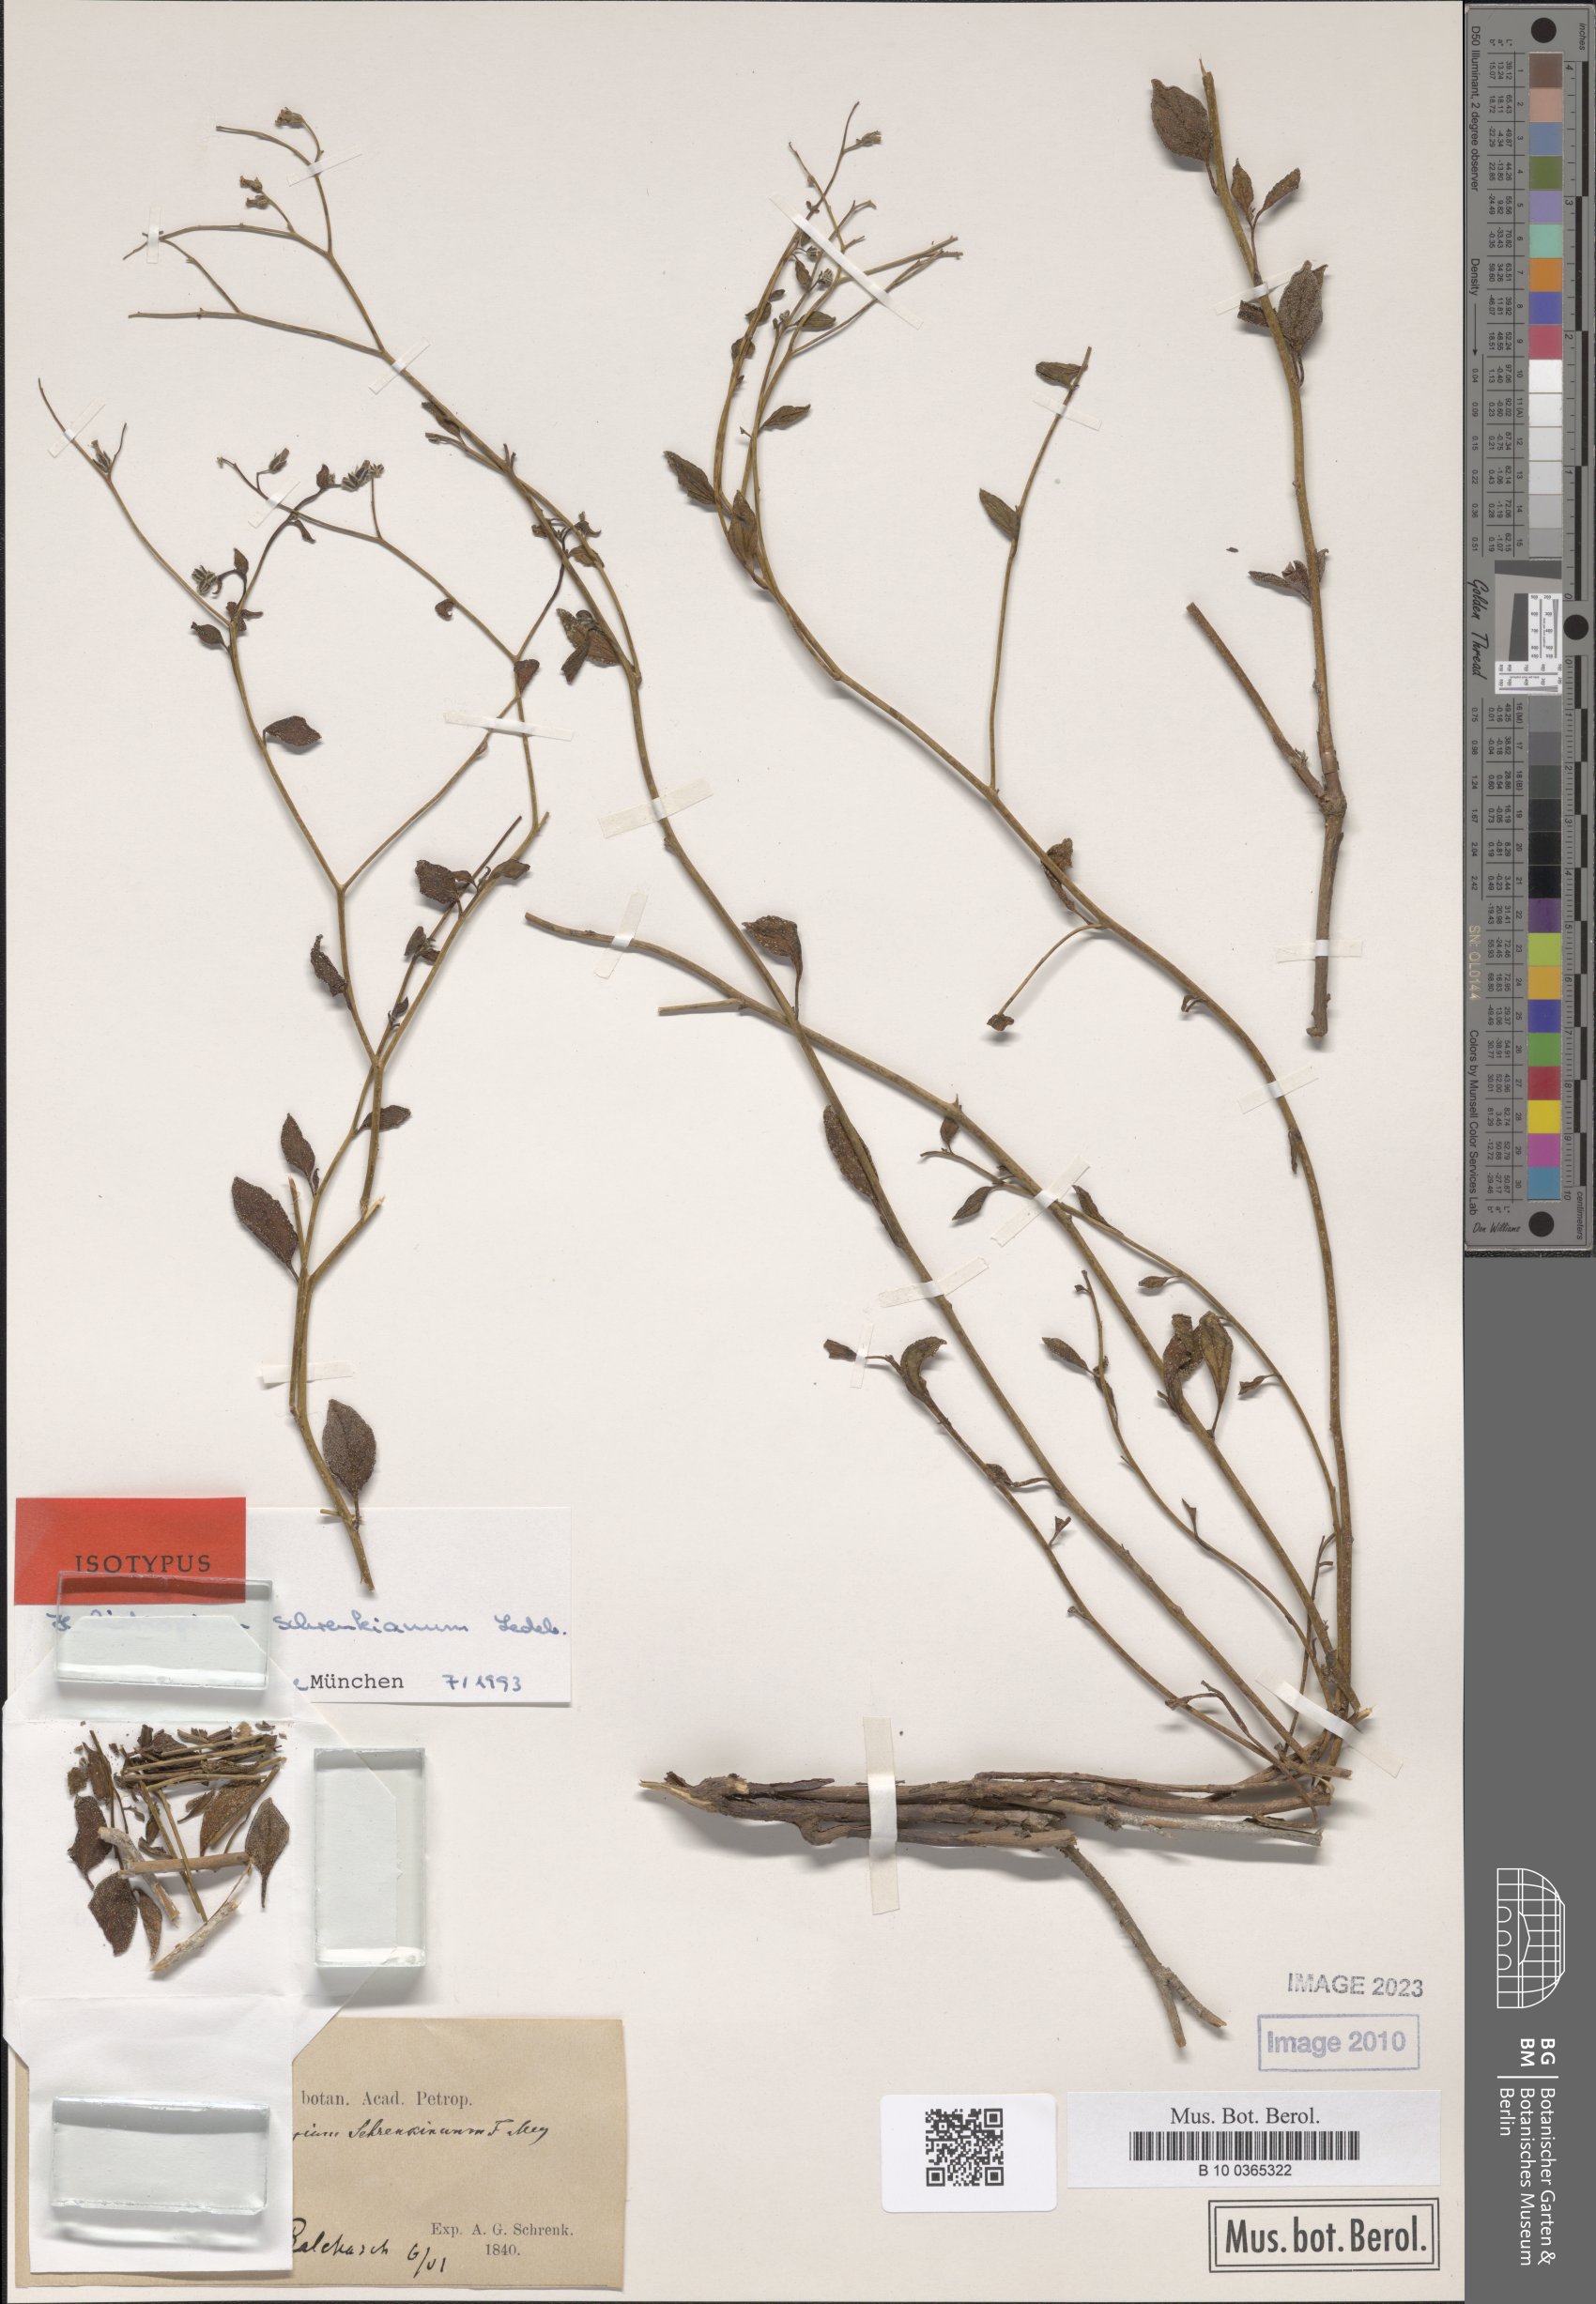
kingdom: Plantae
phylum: Tracheophyta
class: Magnoliopsida
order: Boraginales
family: Heliotropiaceae
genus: Heliotropium
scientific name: Heliotropium dasycarpum
